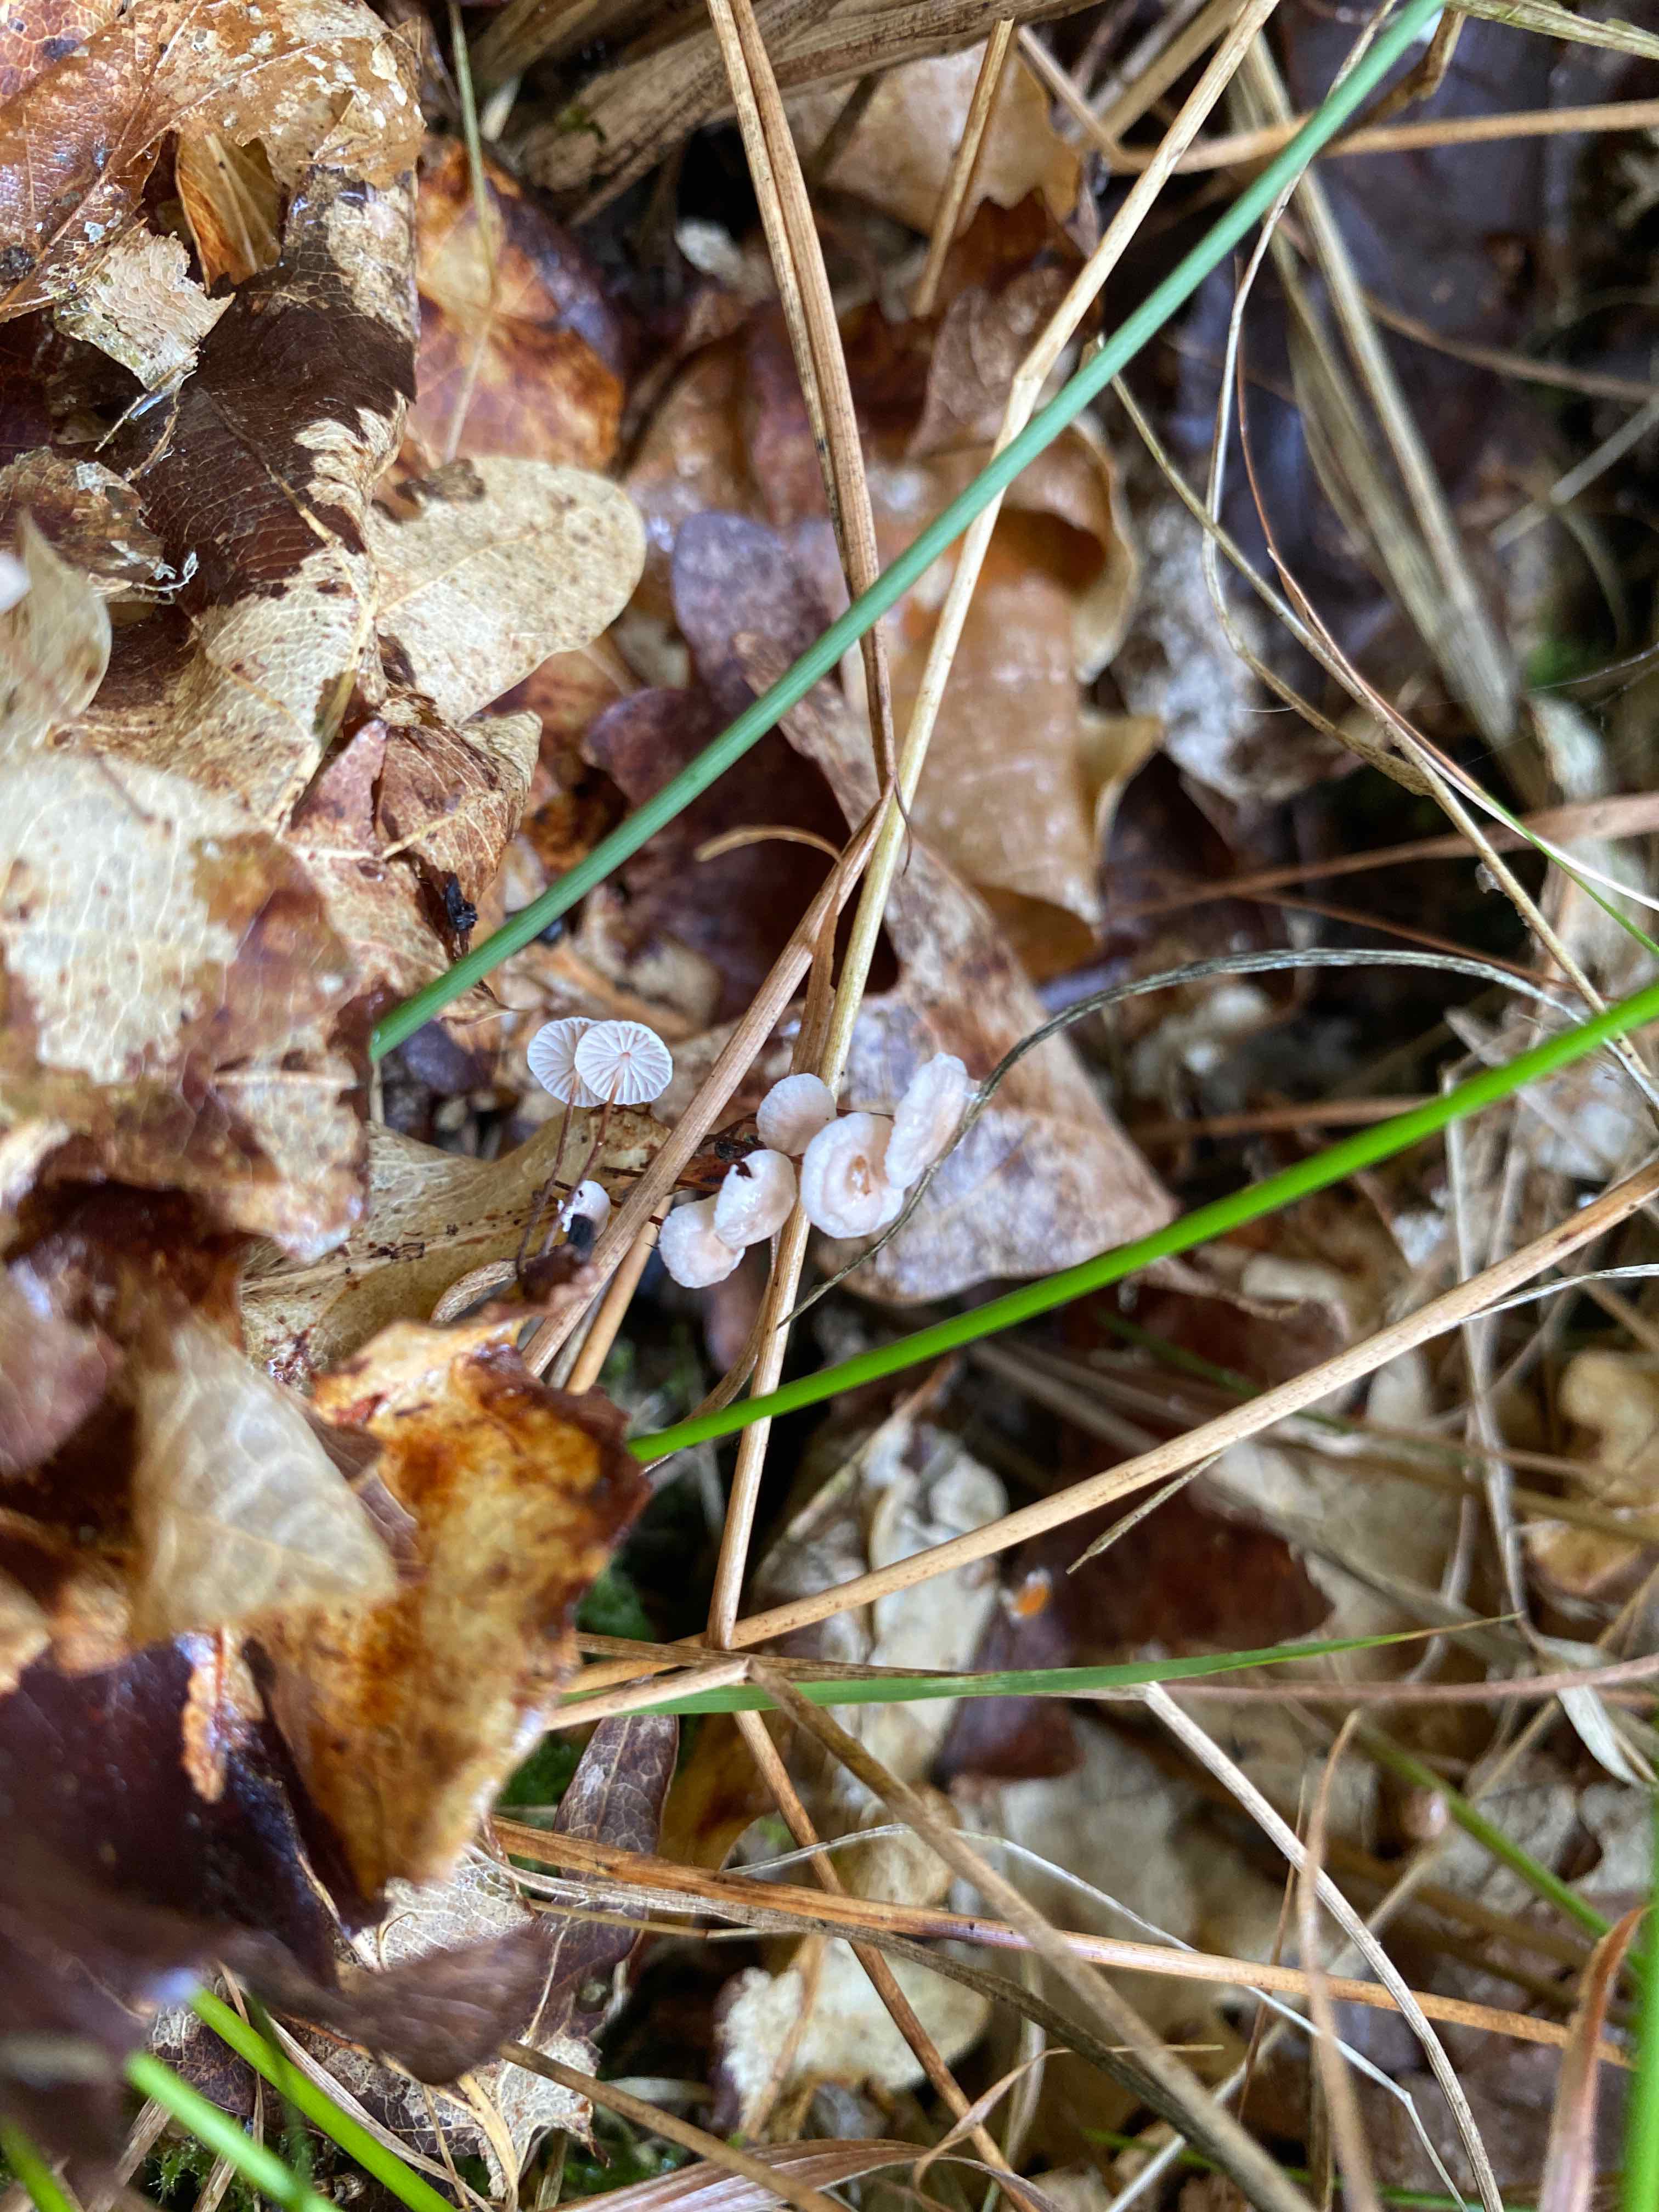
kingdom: Fungi
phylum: Basidiomycota
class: Agaricomycetes
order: Agaricales
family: Omphalotaceae
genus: Collybiopsis
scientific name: Collybiopsis quercophila
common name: egeblads-bruskhat
